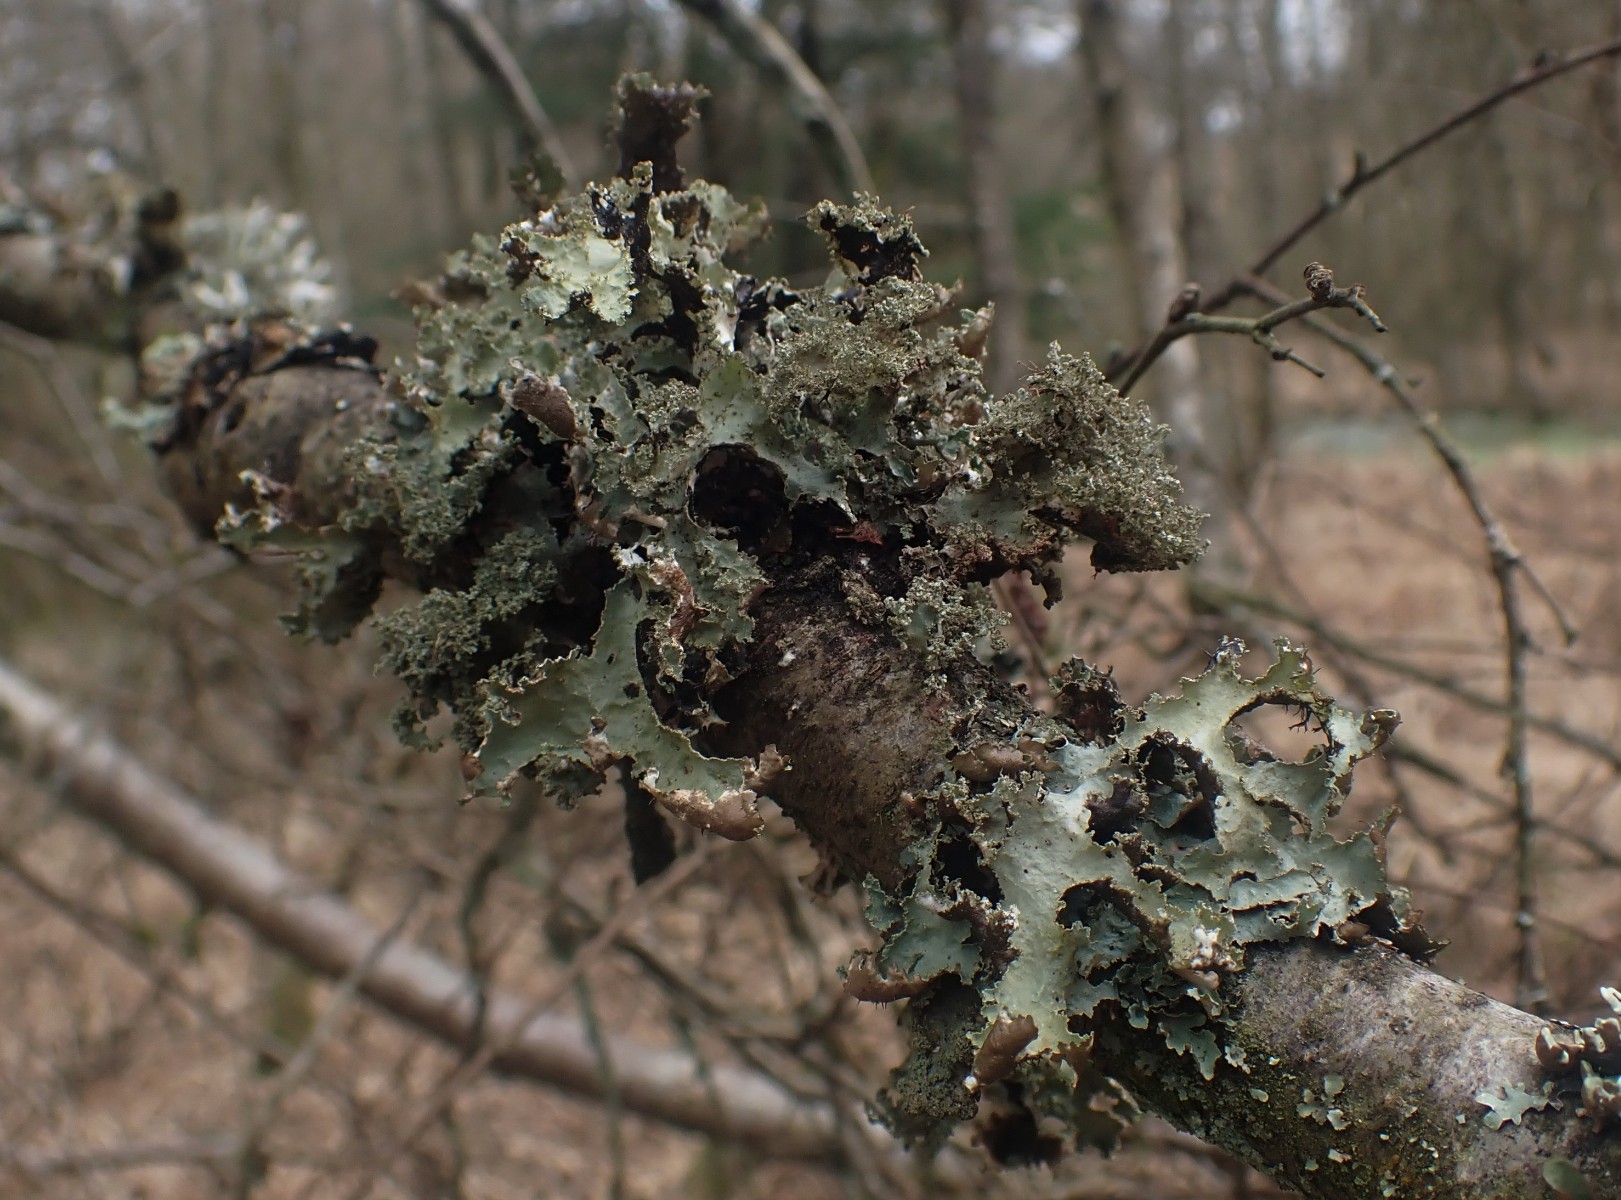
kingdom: Fungi
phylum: Ascomycota
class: Lecanoromycetes
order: Lecanorales
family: Parmeliaceae
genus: Platismatia
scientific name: Platismatia glauca
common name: blågrå papirlav
